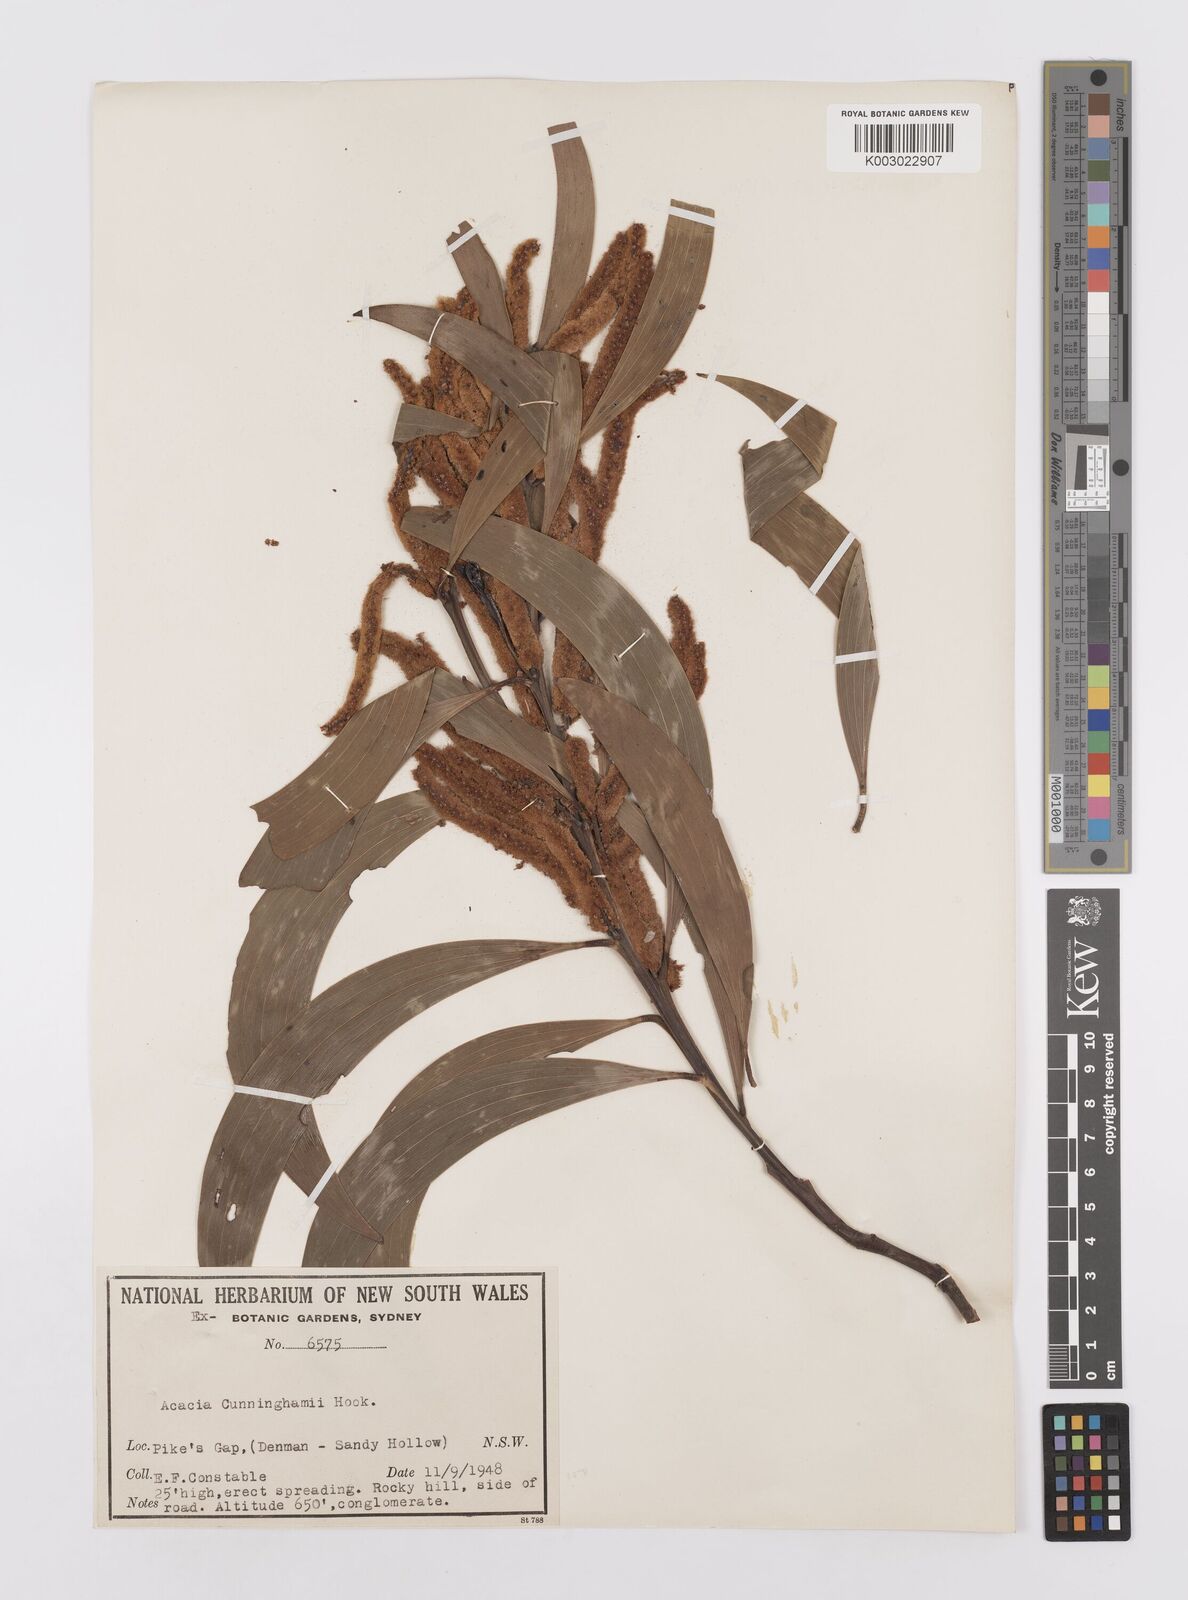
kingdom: Plantae
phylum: Tracheophyta
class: Magnoliopsida
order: Fabales
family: Fabaceae
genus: Acacia
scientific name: Acacia longispicata
